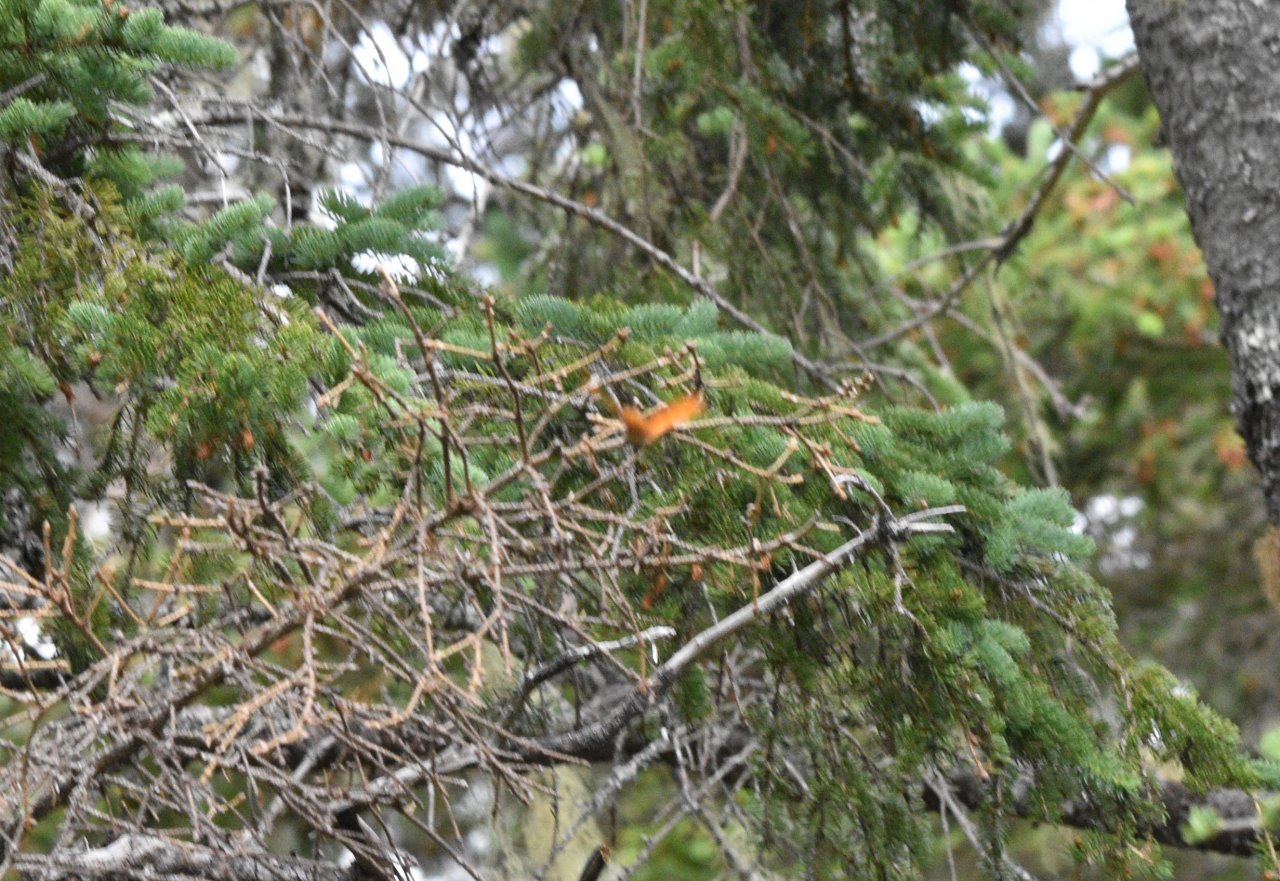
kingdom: Animalia
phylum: Arthropoda
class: Insecta
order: Lepidoptera
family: Nymphalidae
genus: Speyeria
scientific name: Speyeria
